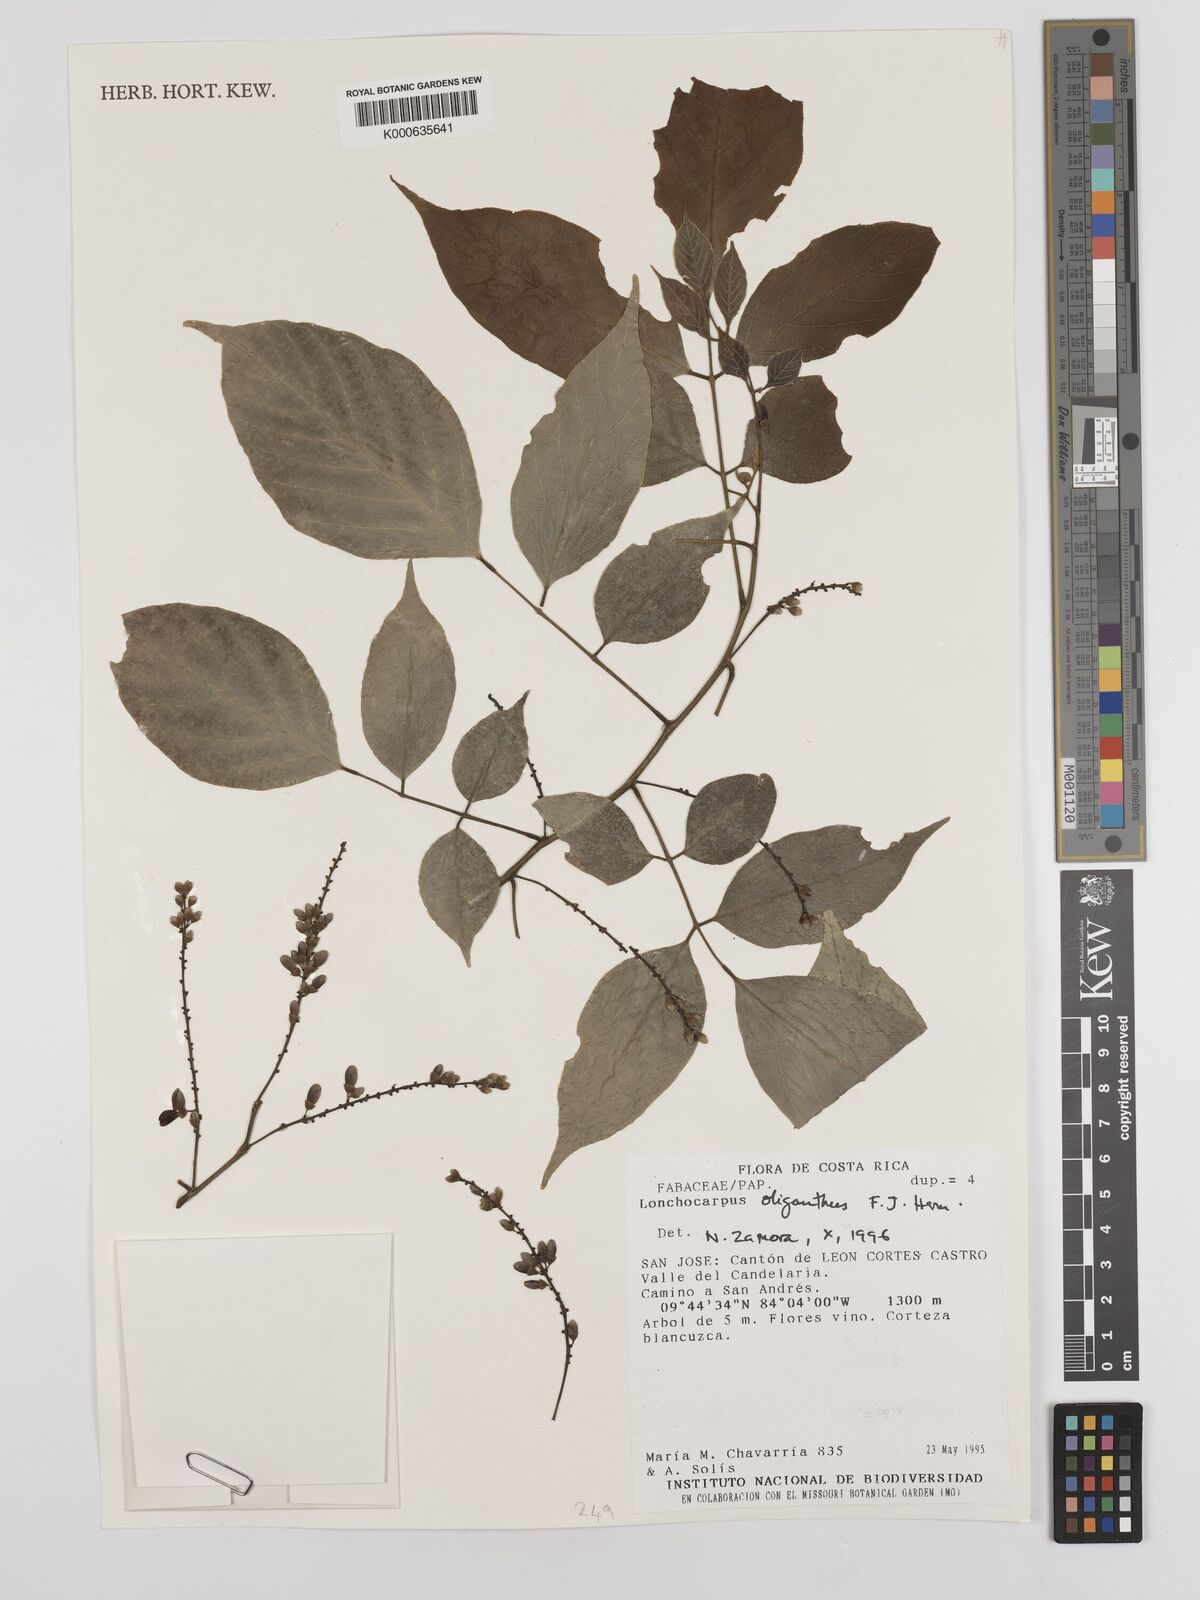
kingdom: Plantae
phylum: Tracheophyta
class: Magnoliopsida
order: Fabales
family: Fabaceae
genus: Lonchocarpus
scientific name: Lonchocarpus oliganthus
